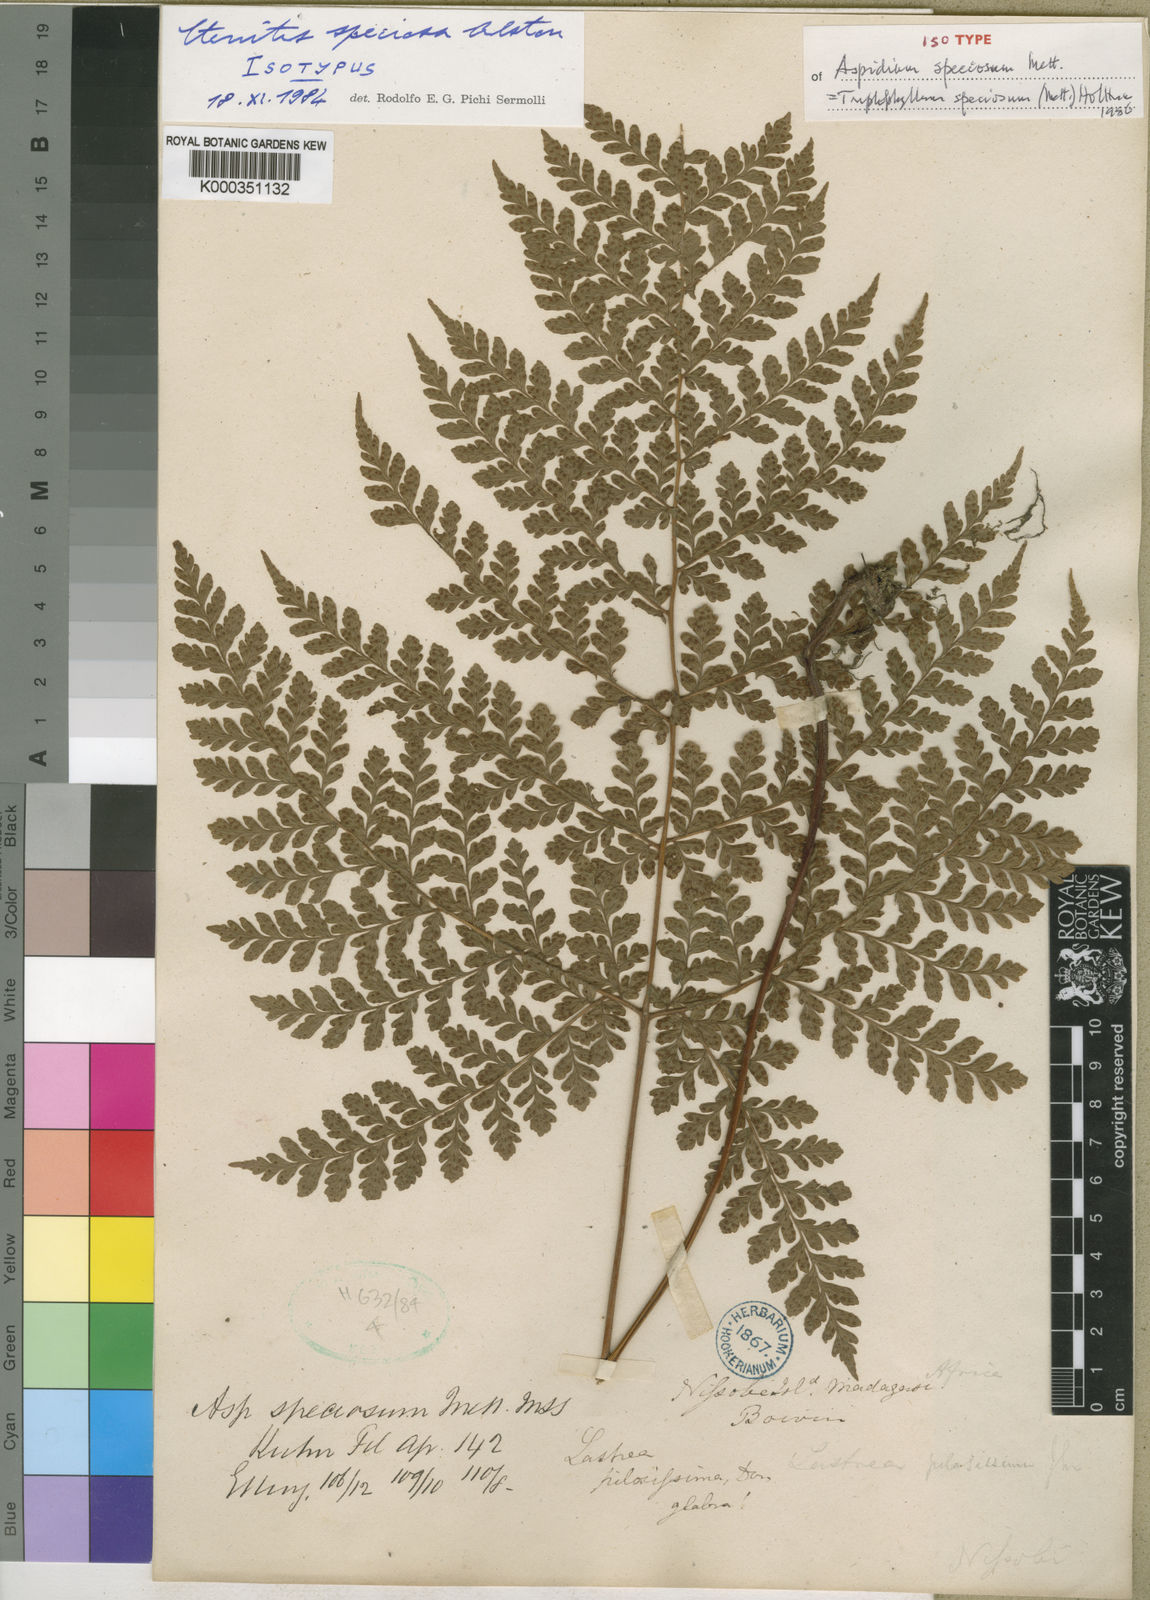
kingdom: Plantae
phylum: Tracheophyta
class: Polypodiopsida
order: Polypodiales
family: Tectariaceae
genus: Triplophyllum
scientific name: Triplophyllum speciosum
